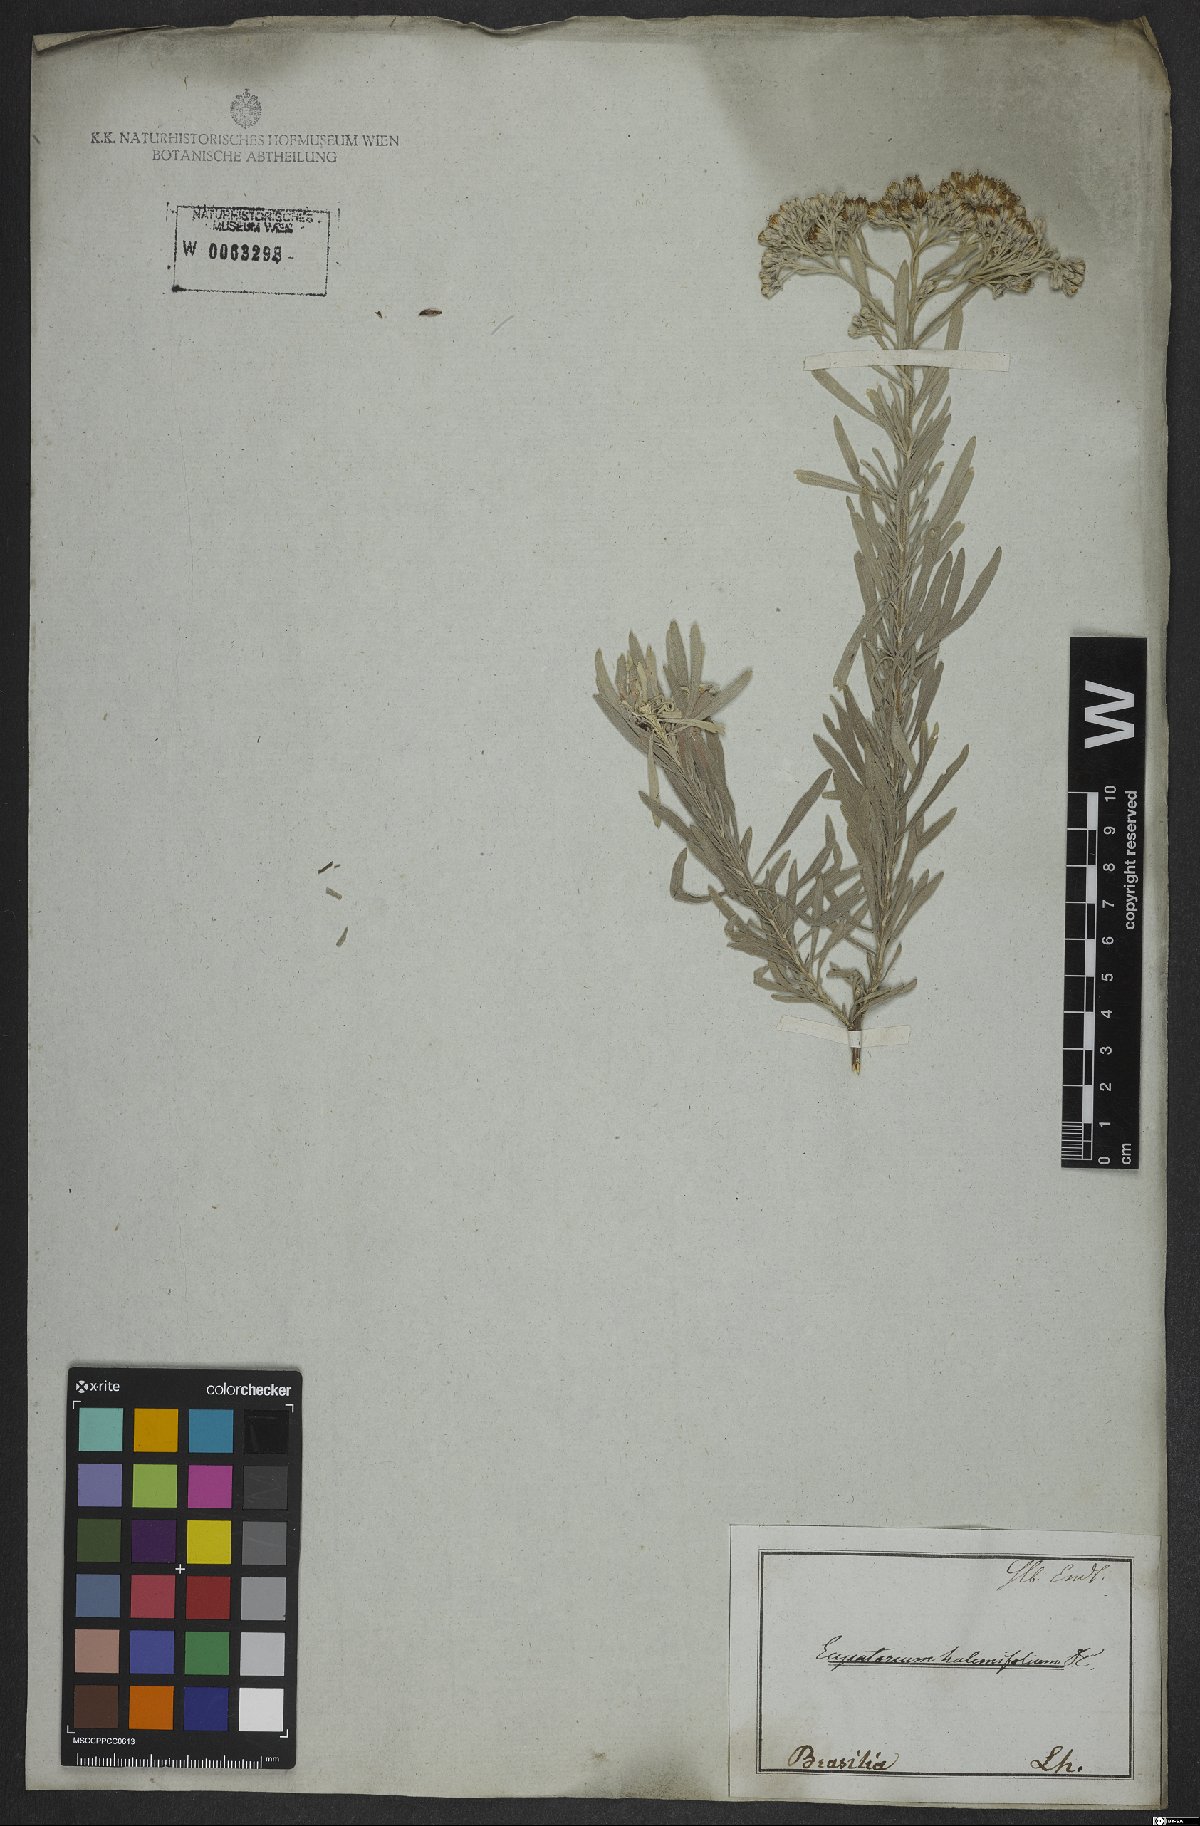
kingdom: Plantae
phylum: Tracheophyta
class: Magnoliopsida
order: Asterales
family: Asteraceae
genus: Disynaphia
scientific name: Disynaphia halimifolia
